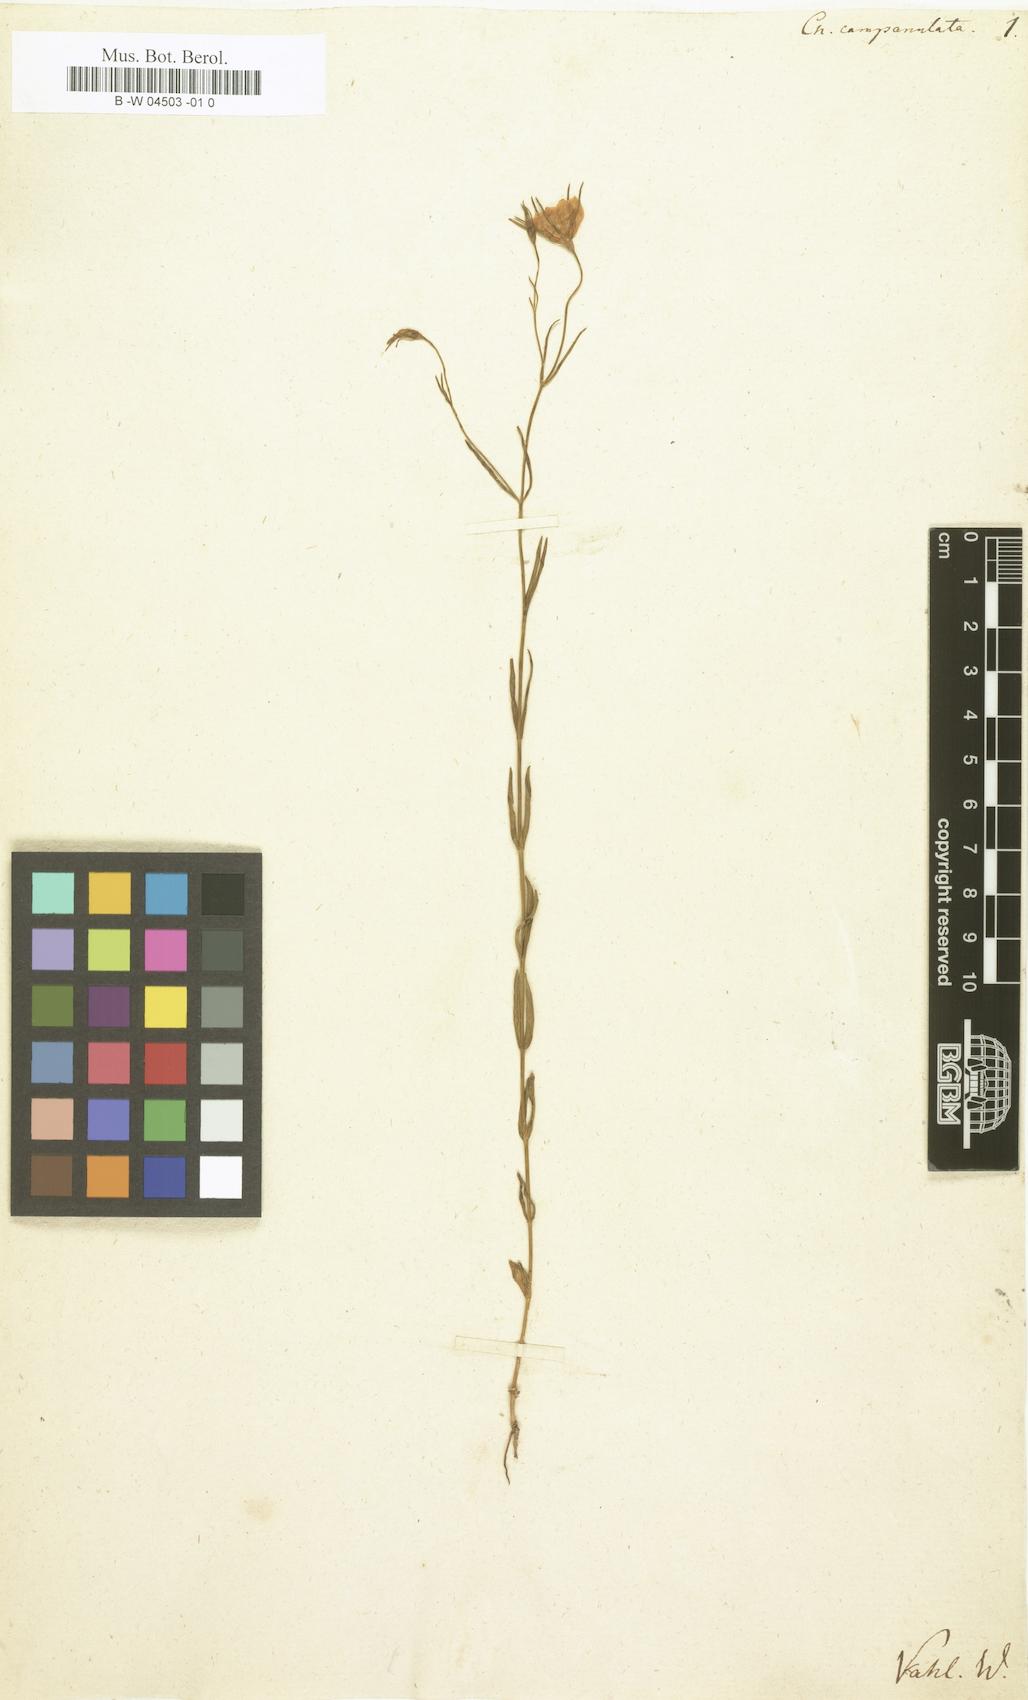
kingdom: Plantae
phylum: Tracheophyta
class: Magnoliopsida
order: Gentianales
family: Gentianaceae
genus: Sabatia
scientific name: Sabatia campanulata
